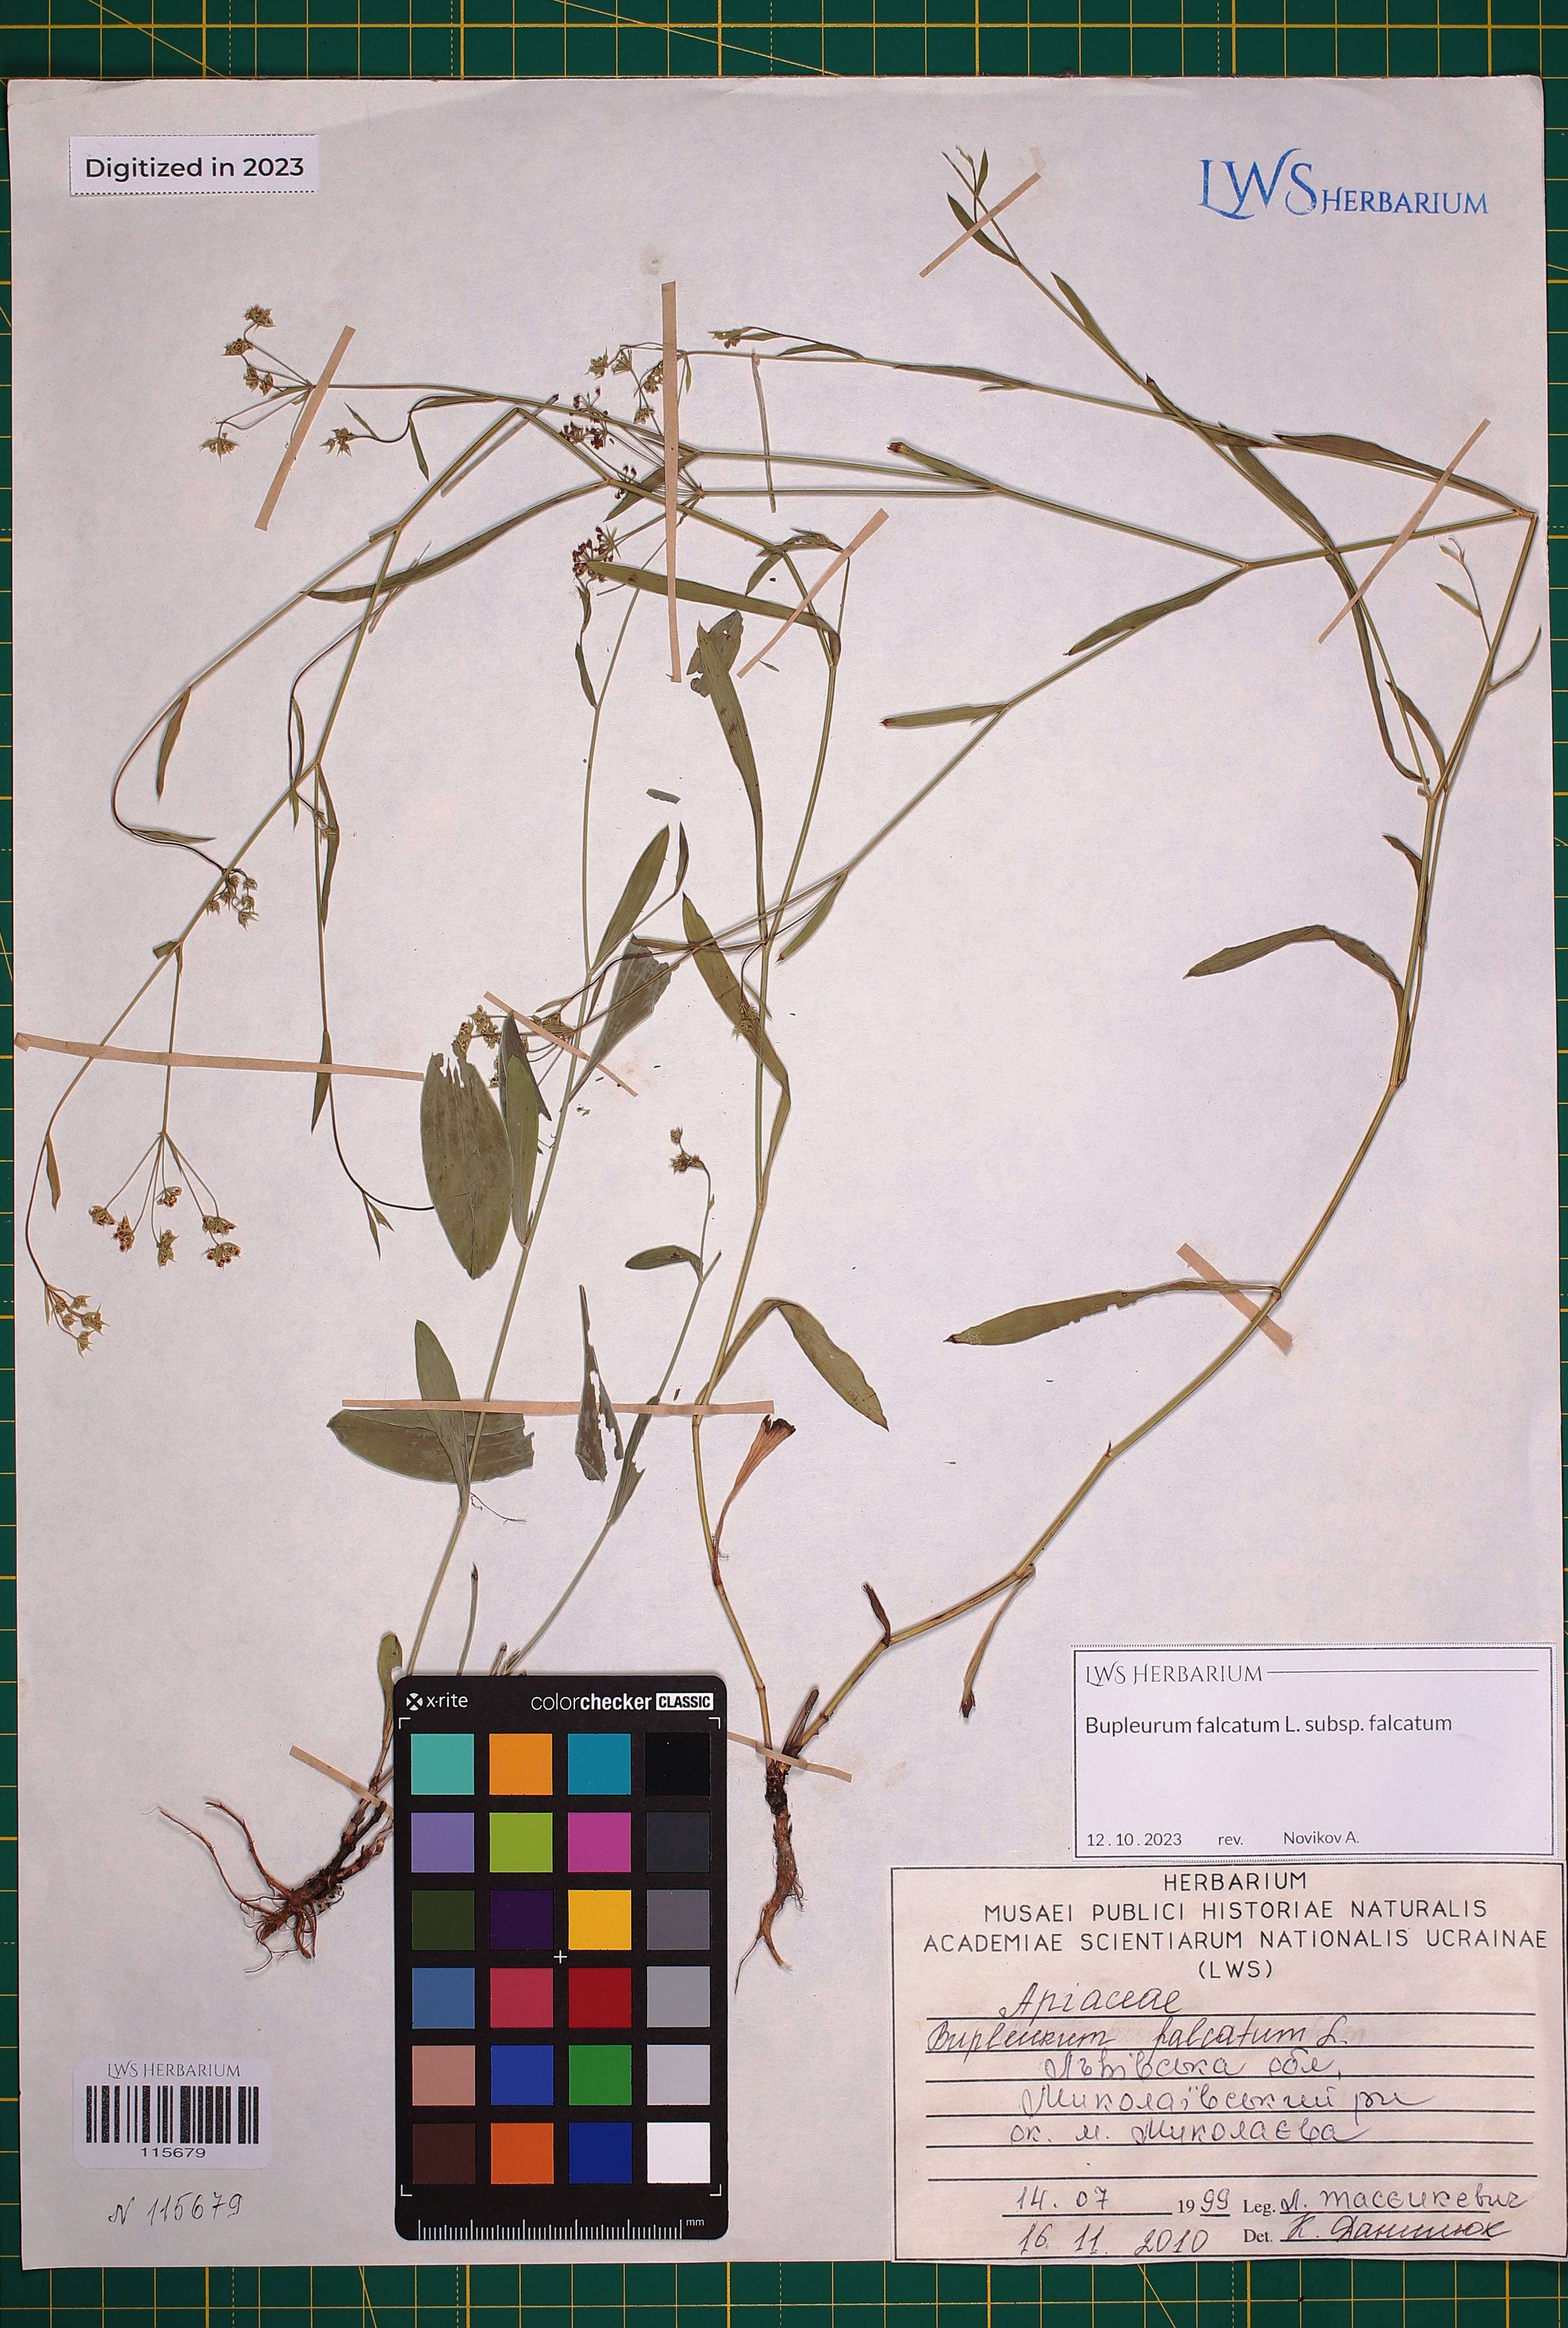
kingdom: Plantae
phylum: Tracheophyta
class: Magnoliopsida
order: Apiales
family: Apiaceae
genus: Bupleurum
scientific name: Bupleurum falcatum
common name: Sickle-leaved hare's-ear
